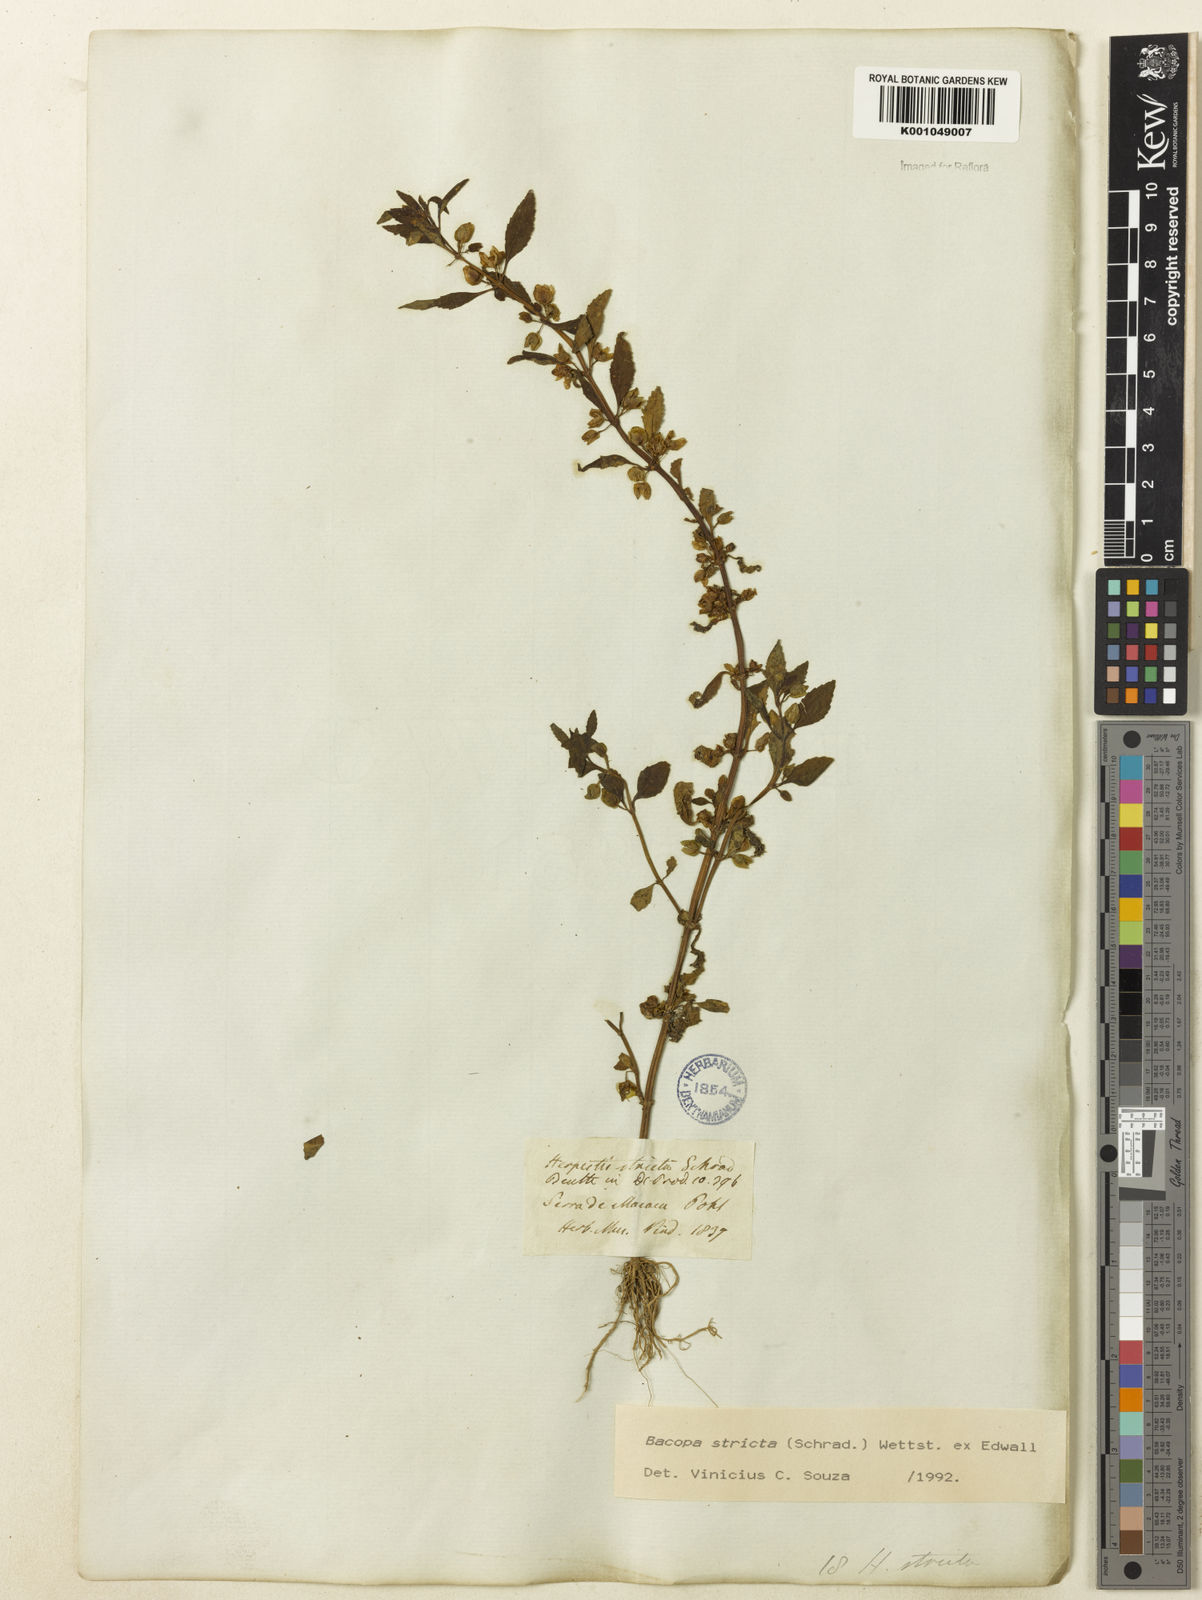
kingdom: Plantae
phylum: Tracheophyta
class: Magnoliopsida
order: Lamiales
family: Plantaginaceae
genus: Bacopa
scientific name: Bacopa stricta
